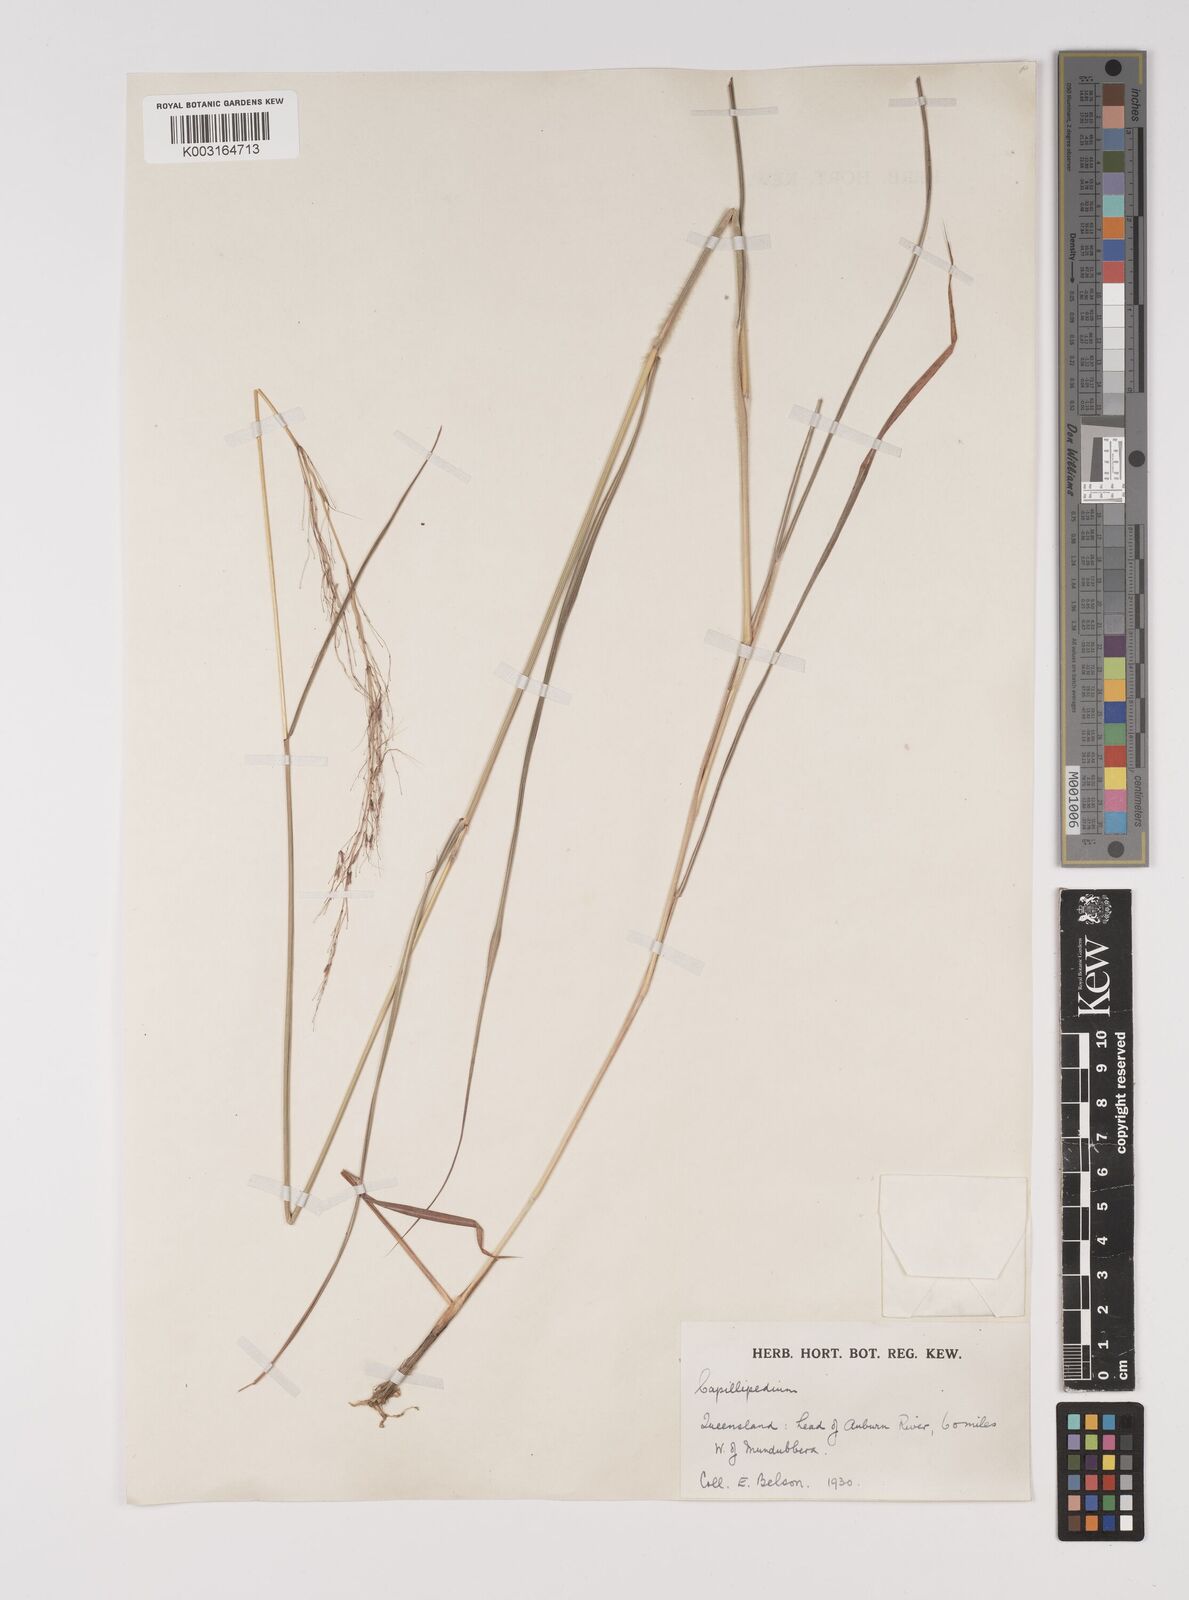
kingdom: Plantae
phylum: Tracheophyta
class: Liliopsida
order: Poales
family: Poaceae
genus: Capillipedium
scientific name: Capillipedium parviflorum
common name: Golden-beard
